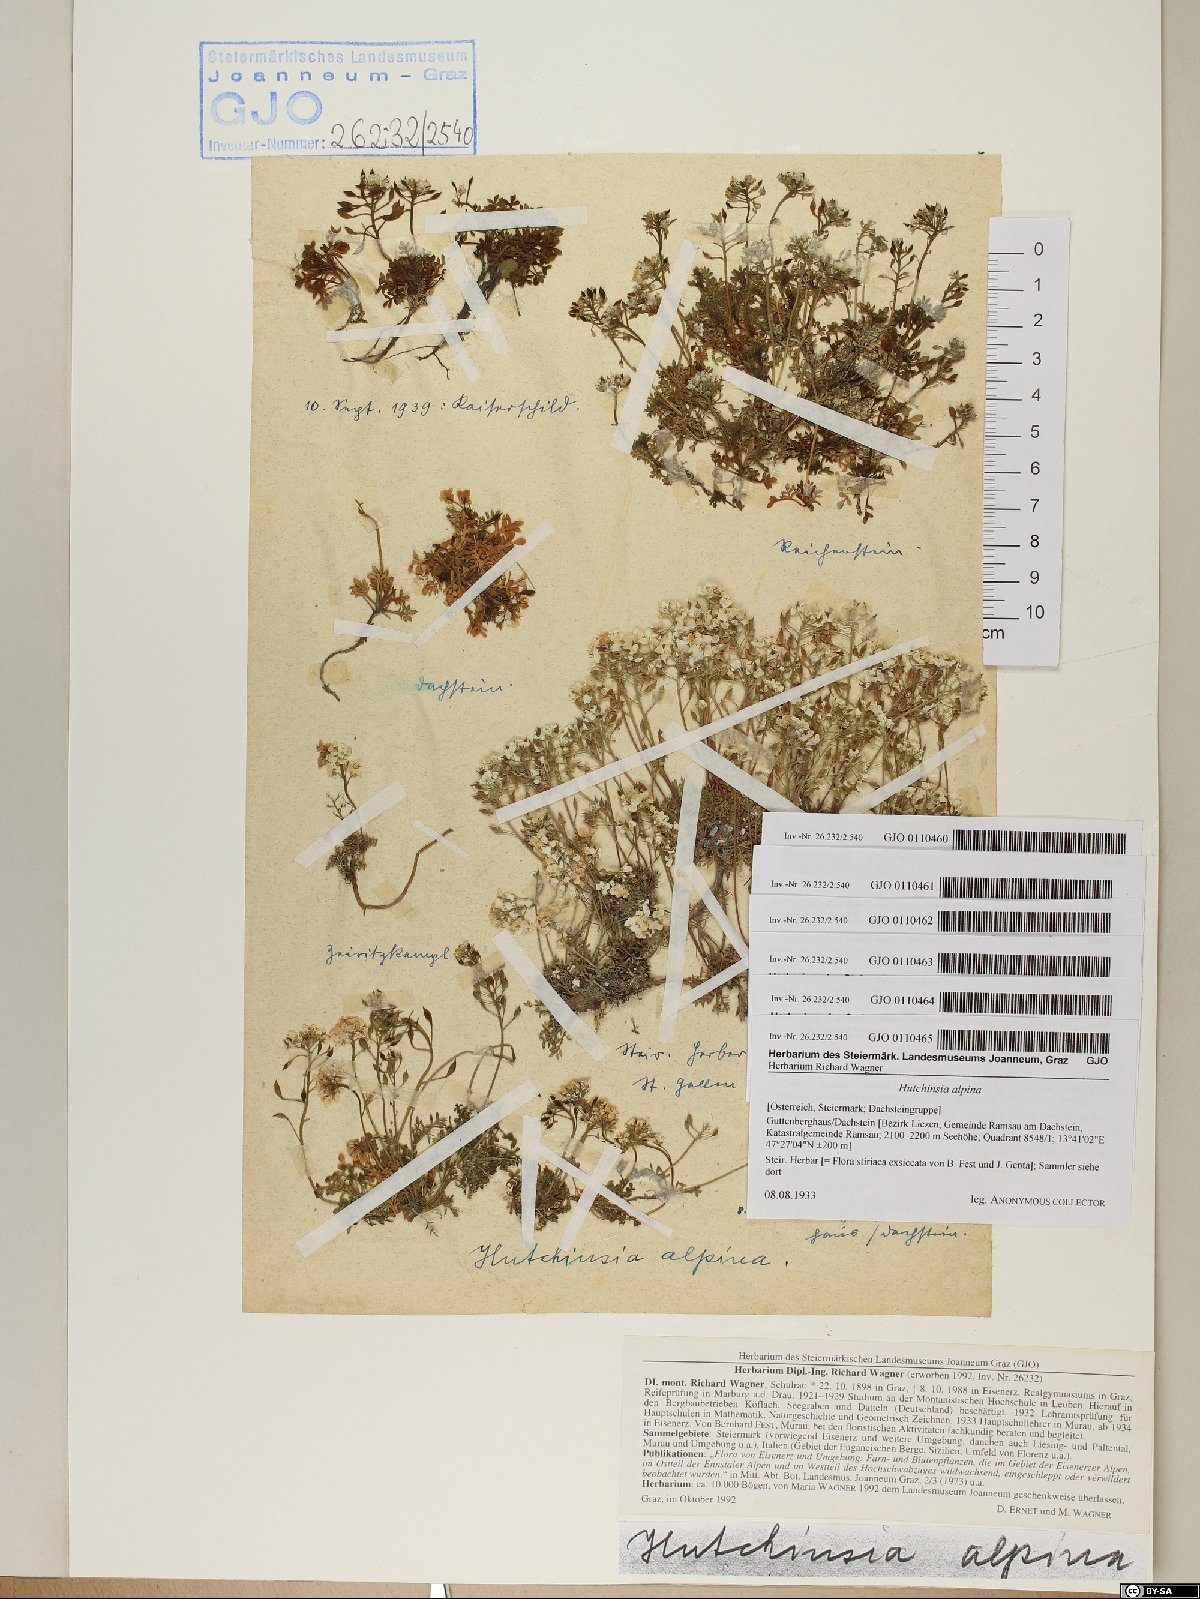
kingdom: Plantae
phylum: Tracheophyta
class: Magnoliopsida
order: Brassicales
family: Brassicaceae
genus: Hornungia
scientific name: Hornungia alpina
